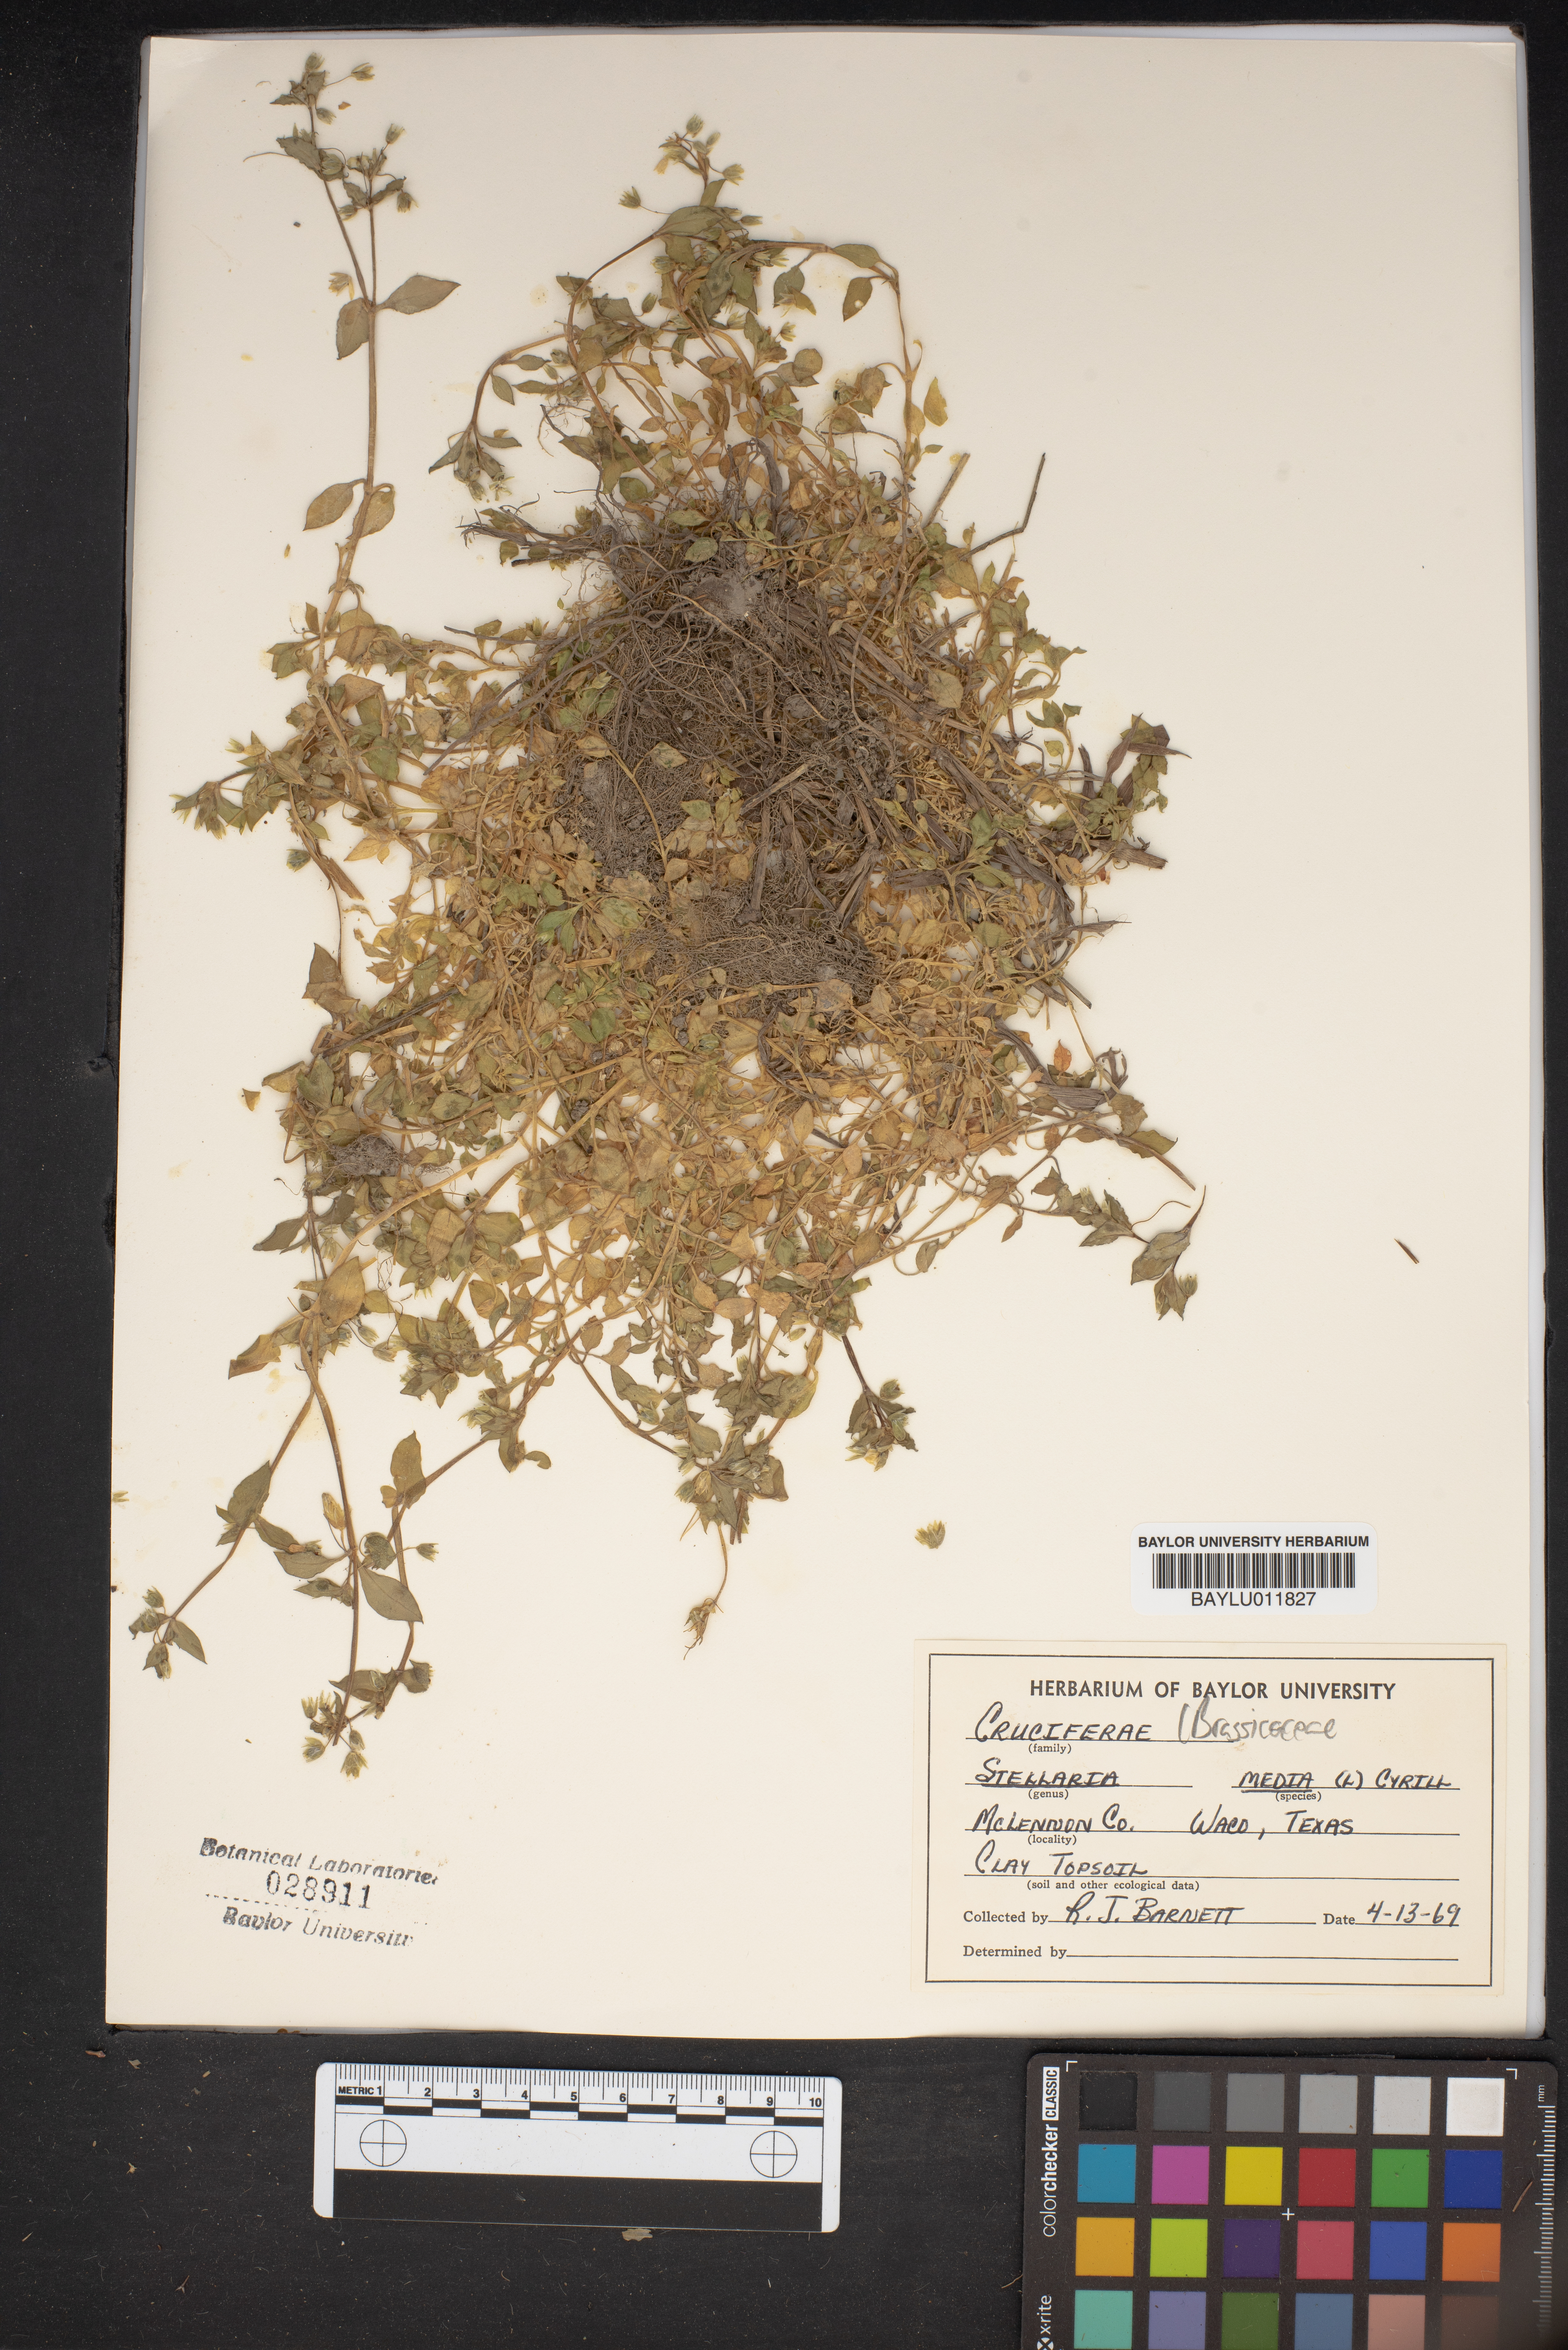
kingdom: Plantae
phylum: Tracheophyta
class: Magnoliopsida
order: Caryophyllales
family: Caryophyllaceae
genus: Stellaria
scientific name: Stellaria media
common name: Common chickweed
